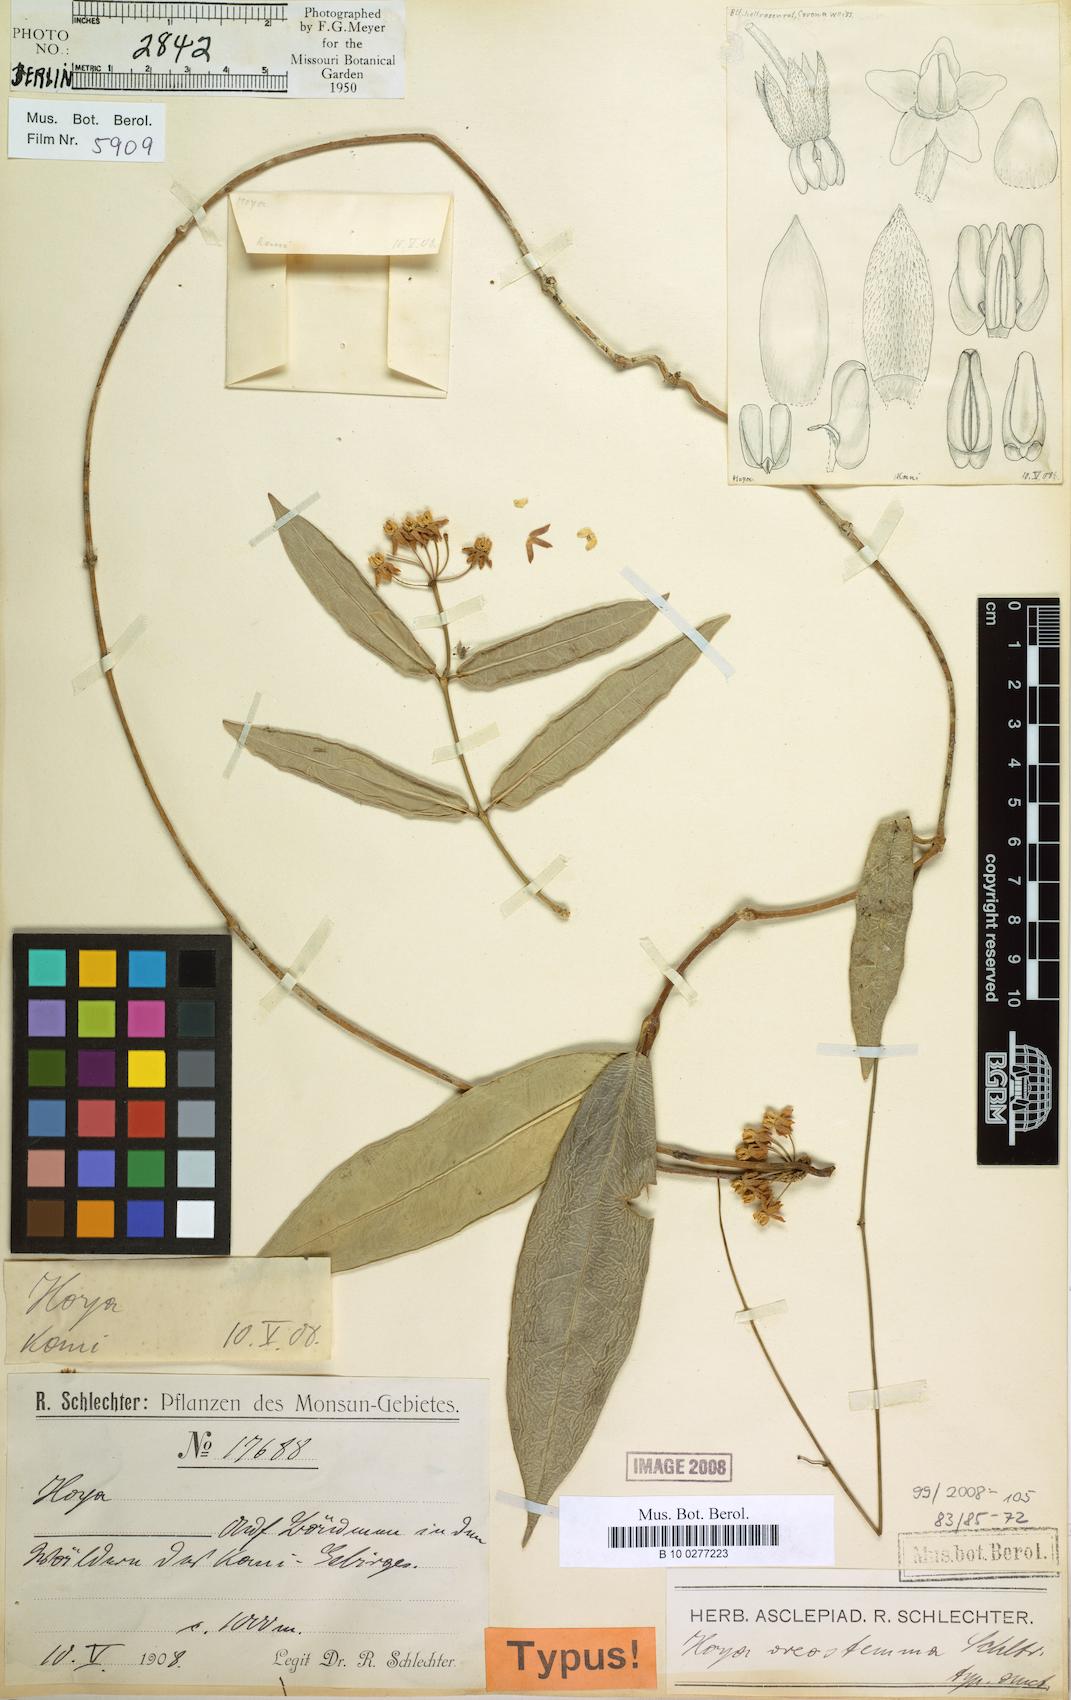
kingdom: Plantae
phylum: Tracheophyta
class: Magnoliopsida
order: Gentianales
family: Apocynaceae
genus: Hoya
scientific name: Hoya oreostemma
